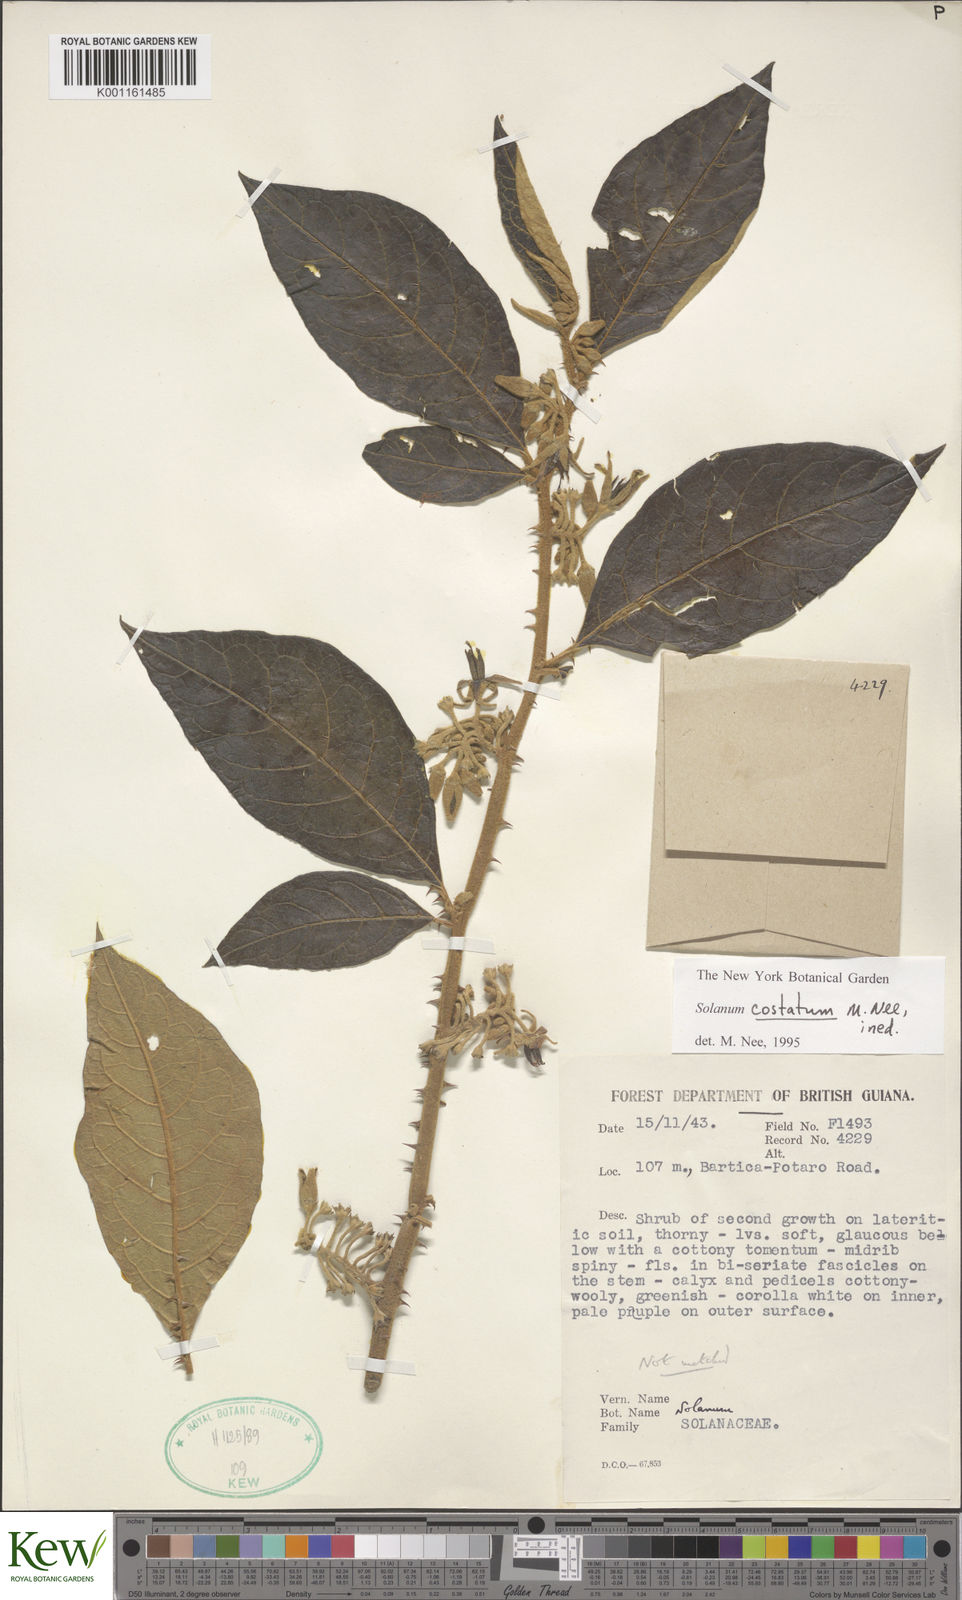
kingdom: Plantae
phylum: Tracheophyta
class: Magnoliopsida
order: Solanales
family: Solanaceae
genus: Solanum
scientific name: Solanum costatum
